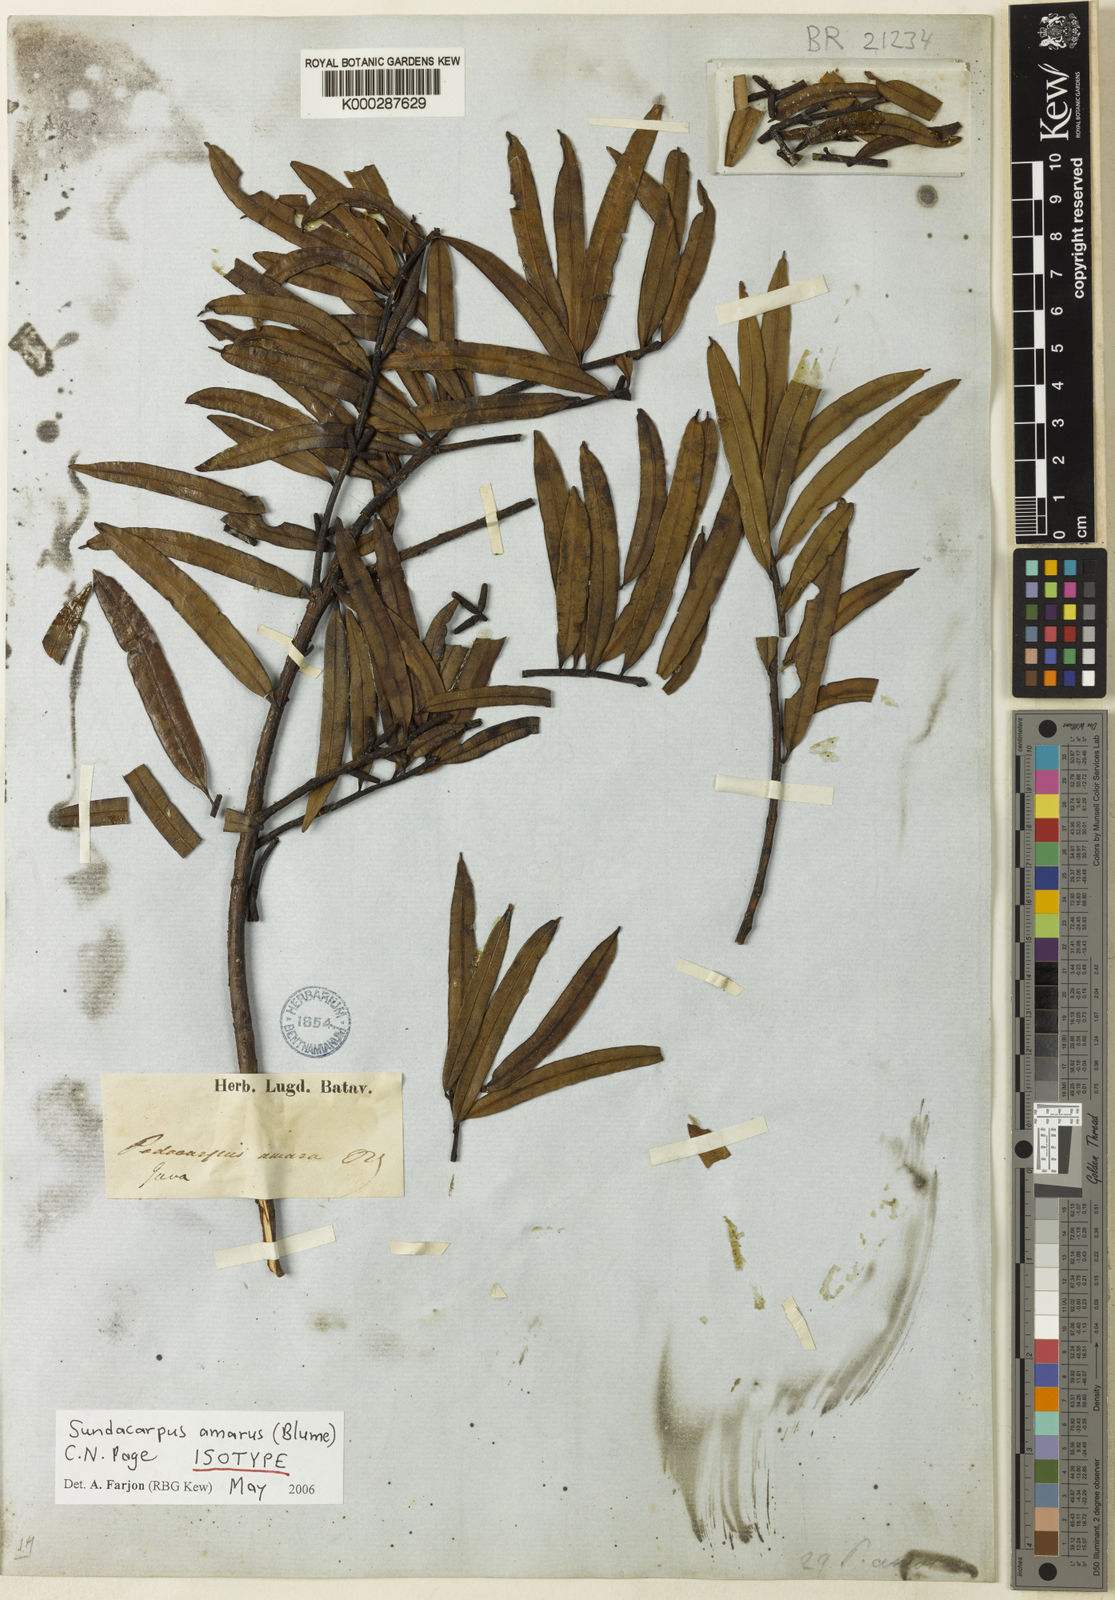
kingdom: Plantae
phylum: Tracheophyta
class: Pinopsida
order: Pinales
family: Podocarpaceae
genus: Sundacarpus
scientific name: Sundacarpus amarus
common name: Black pine
